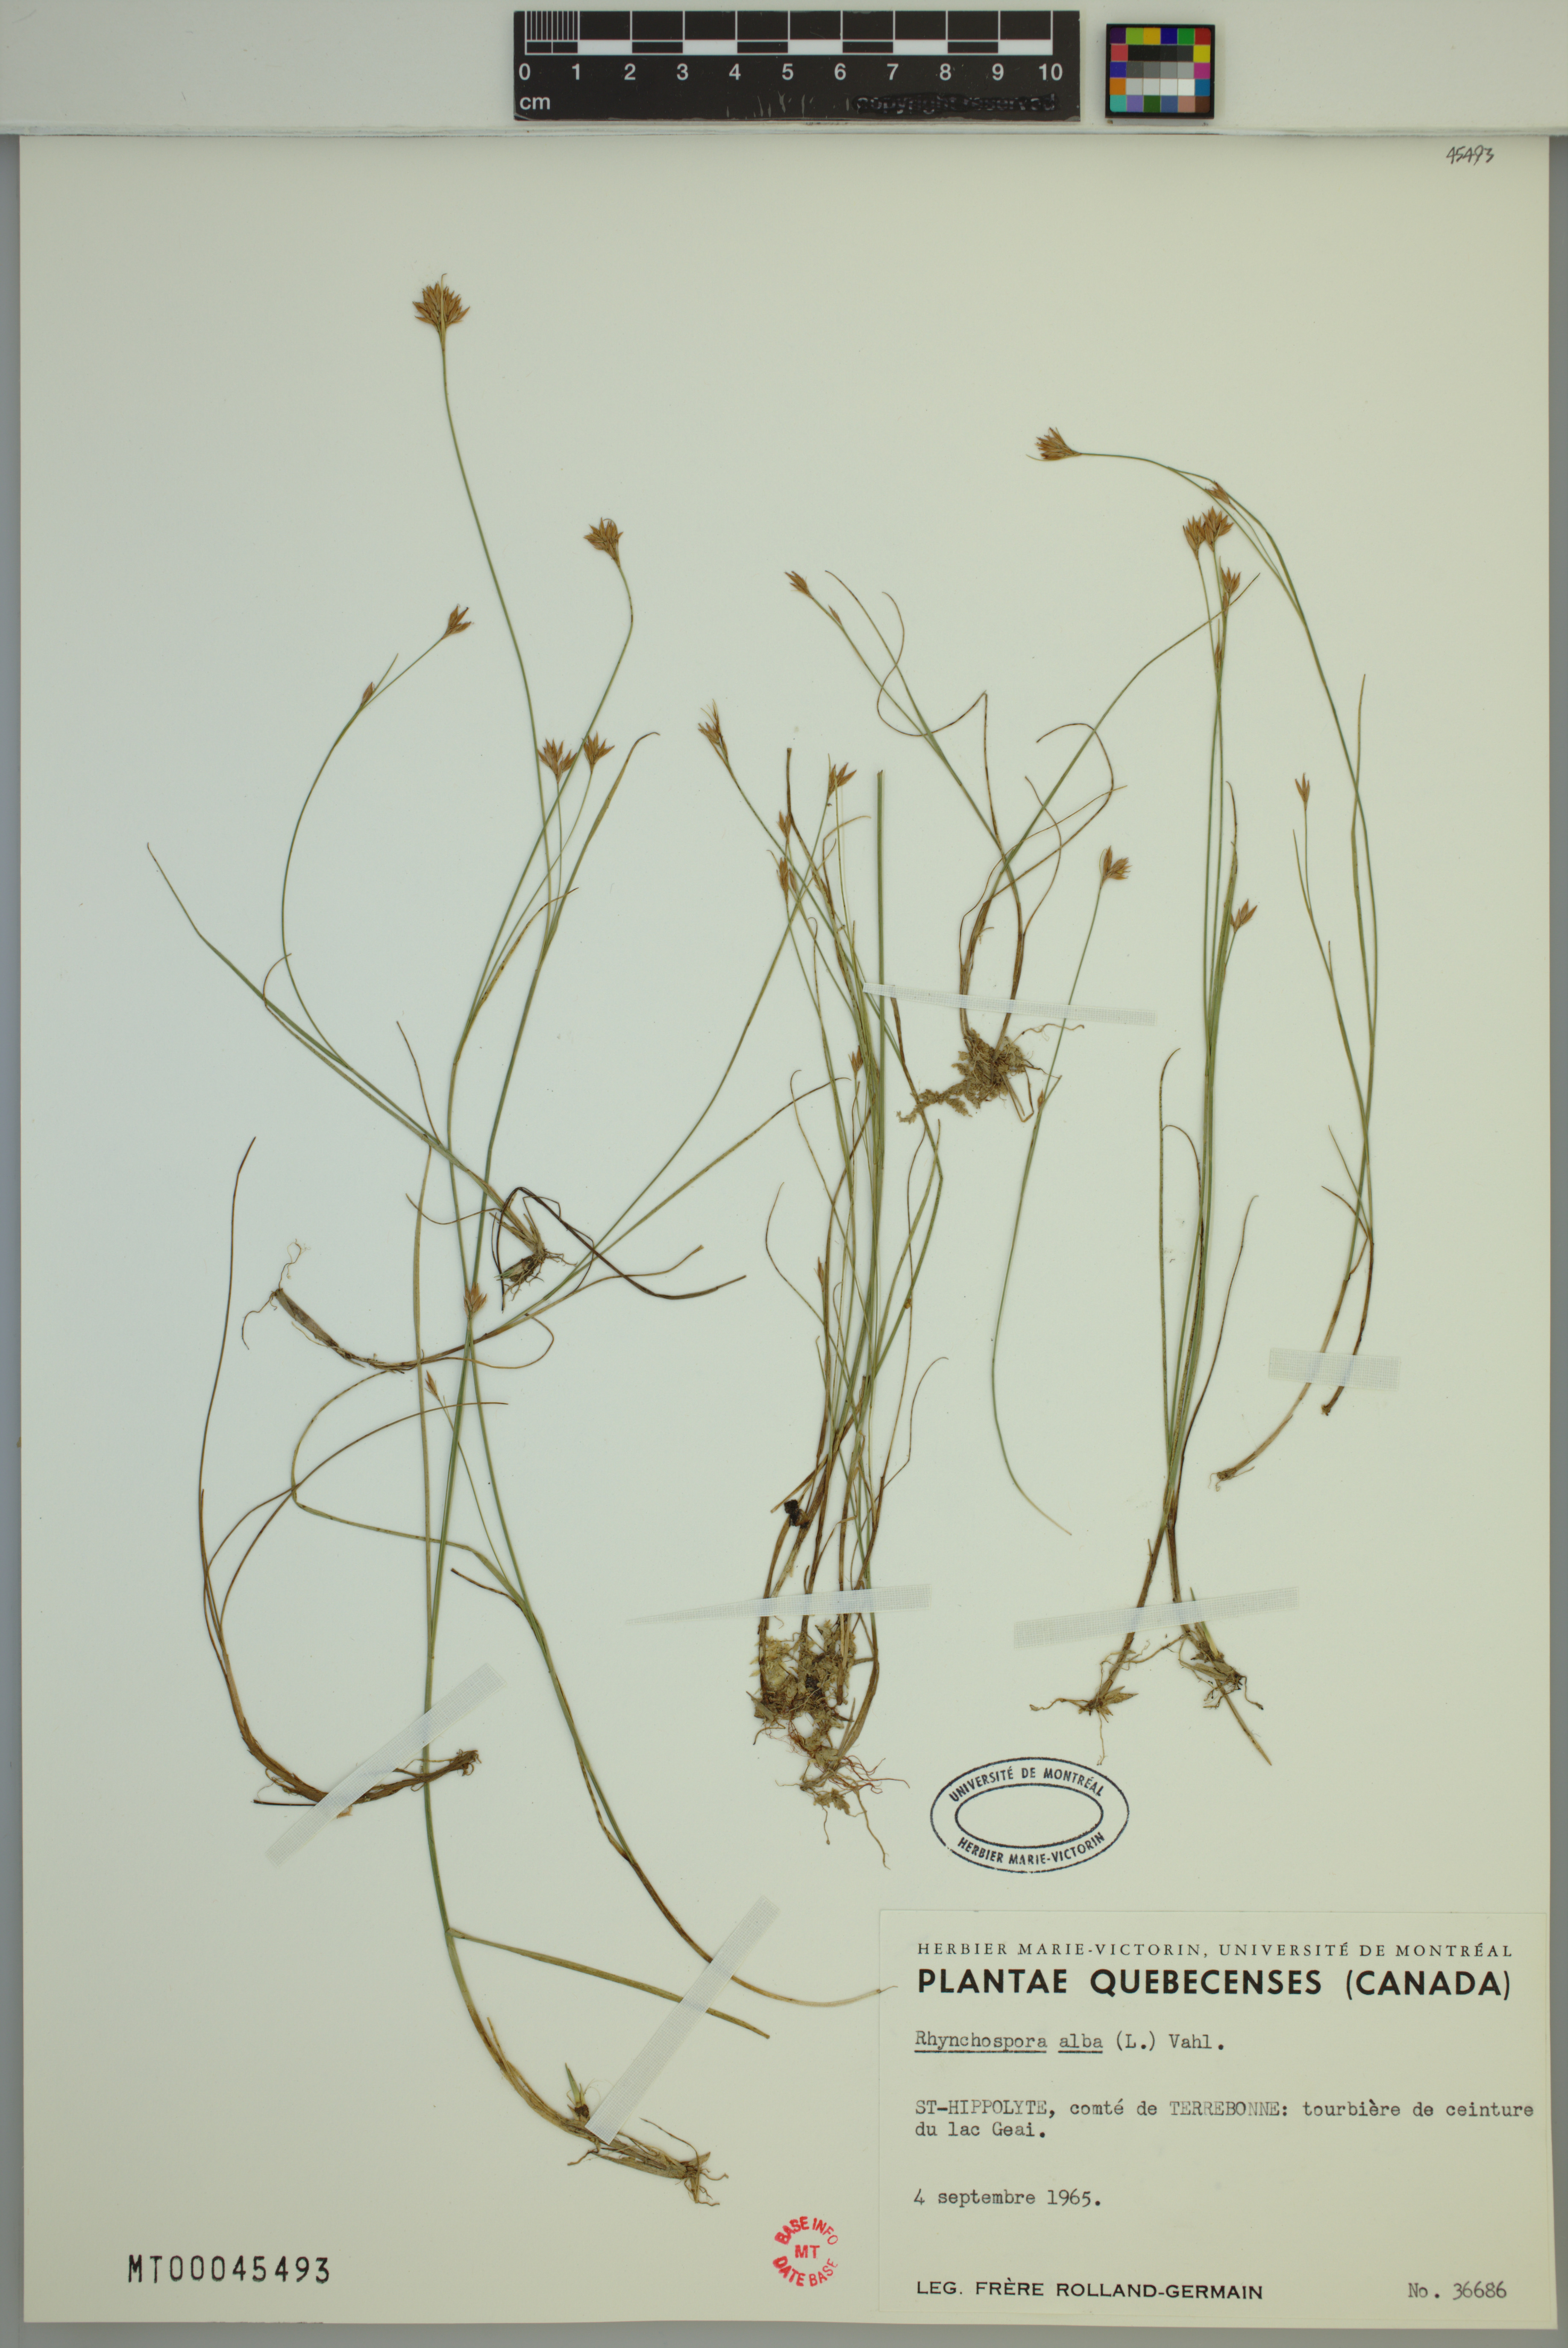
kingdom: Plantae
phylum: Tracheophyta
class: Liliopsida
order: Poales
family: Cyperaceae
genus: Rhynchospora
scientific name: Rhynchospora alba
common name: White beak-sedge
